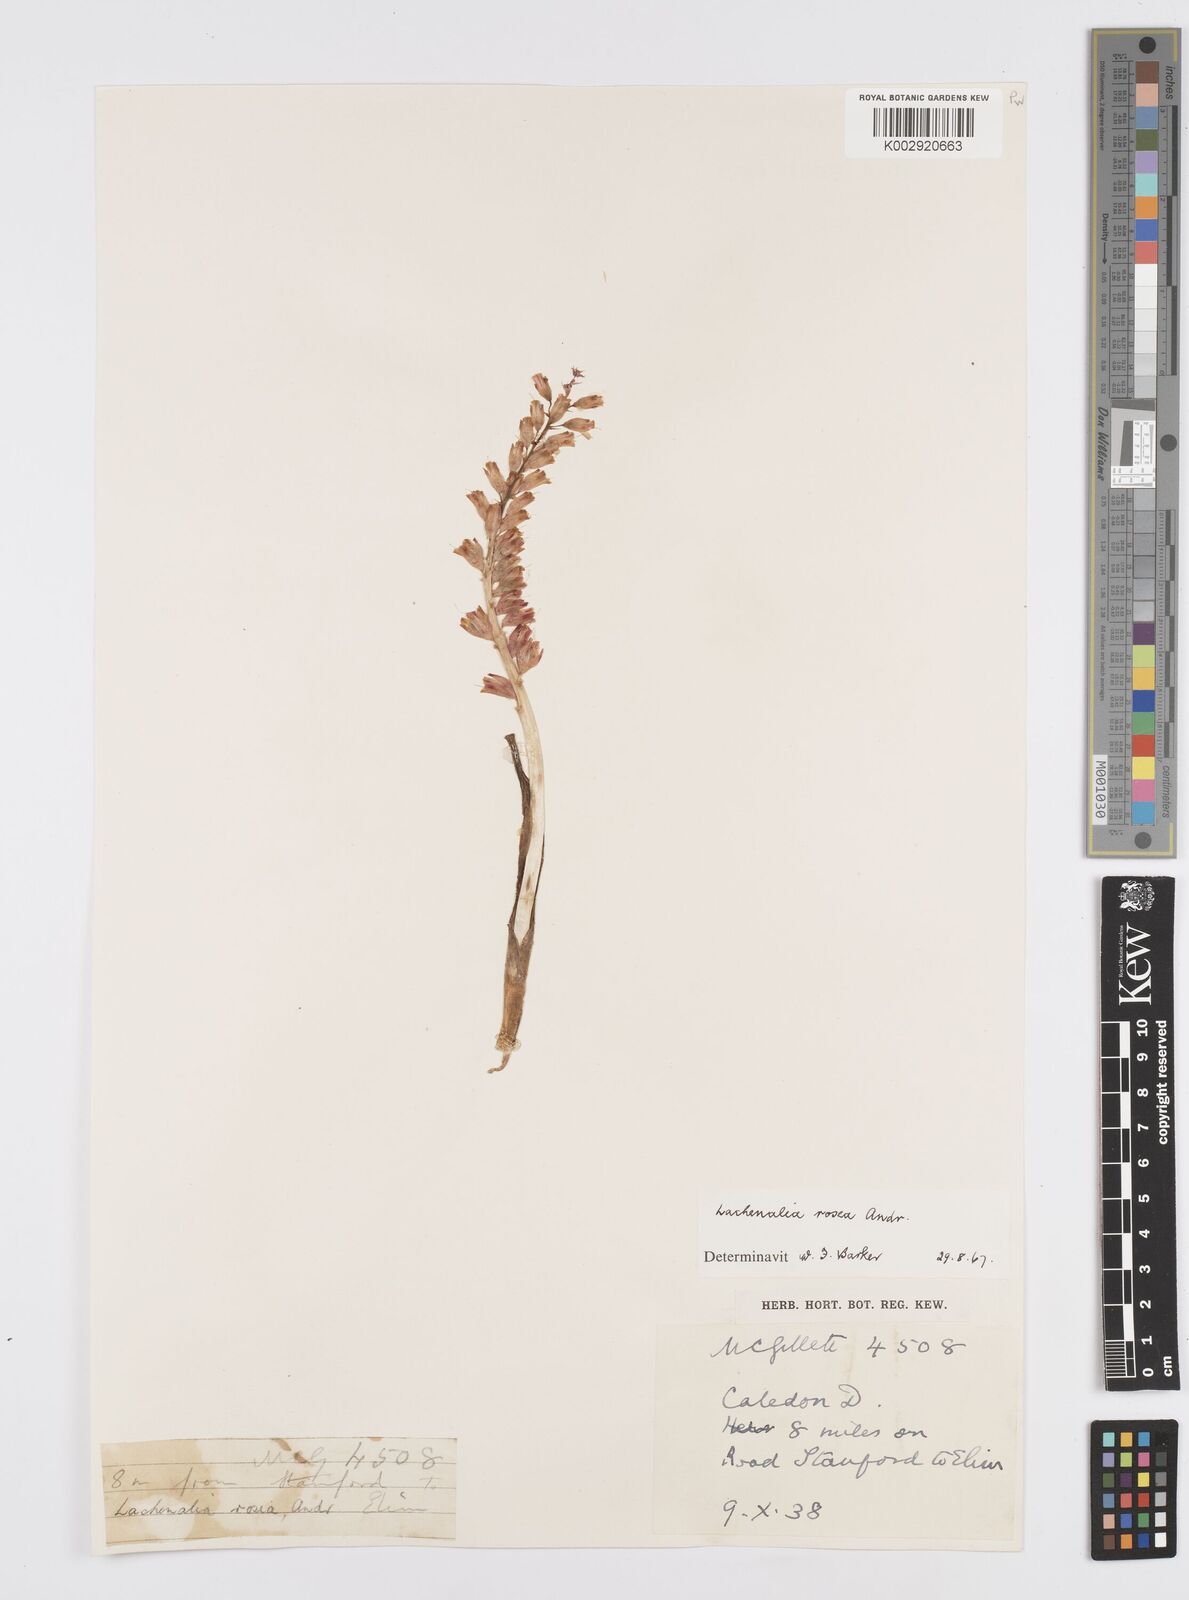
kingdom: Plantae
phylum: Tracheophyta
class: Liliopsida
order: Asparagales
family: Asparagaceae
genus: Lachenalia
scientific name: Lachenalia rosea
